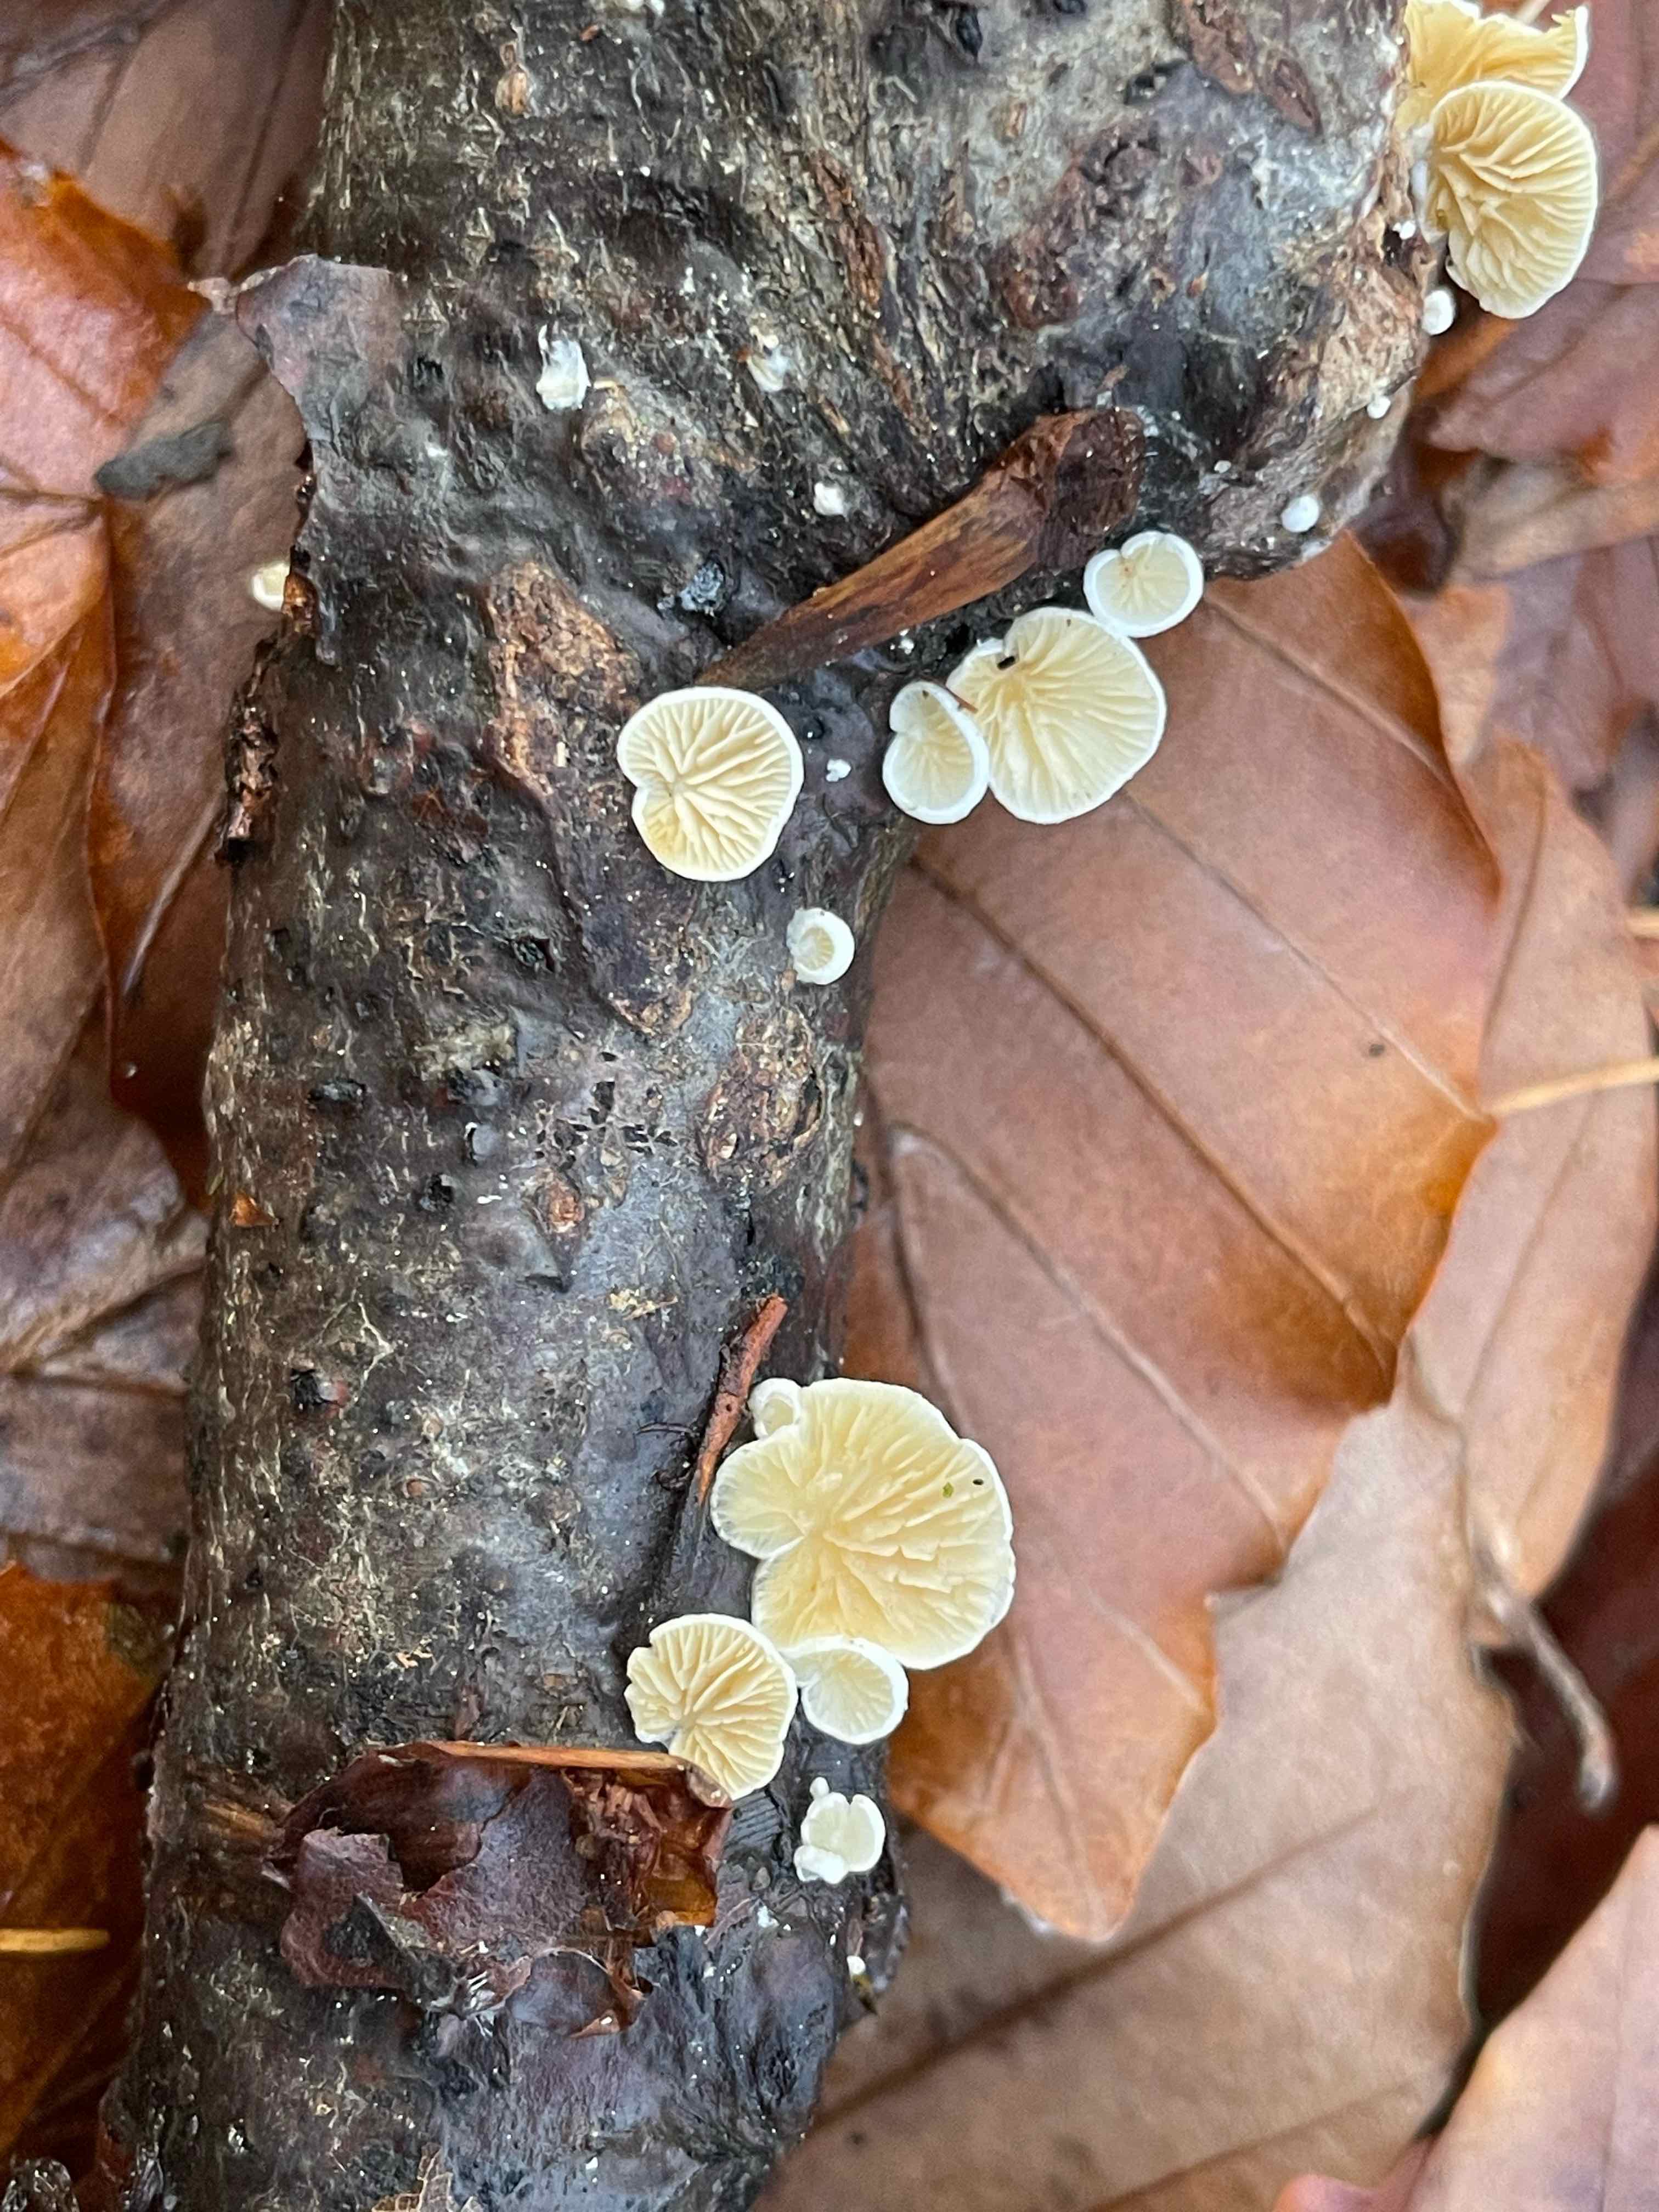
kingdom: Fungi
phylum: Basidiomycota
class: Agaricomycetes
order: Agaricales
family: Crepidotaceae
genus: Crepidotus
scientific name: Crepidotus
